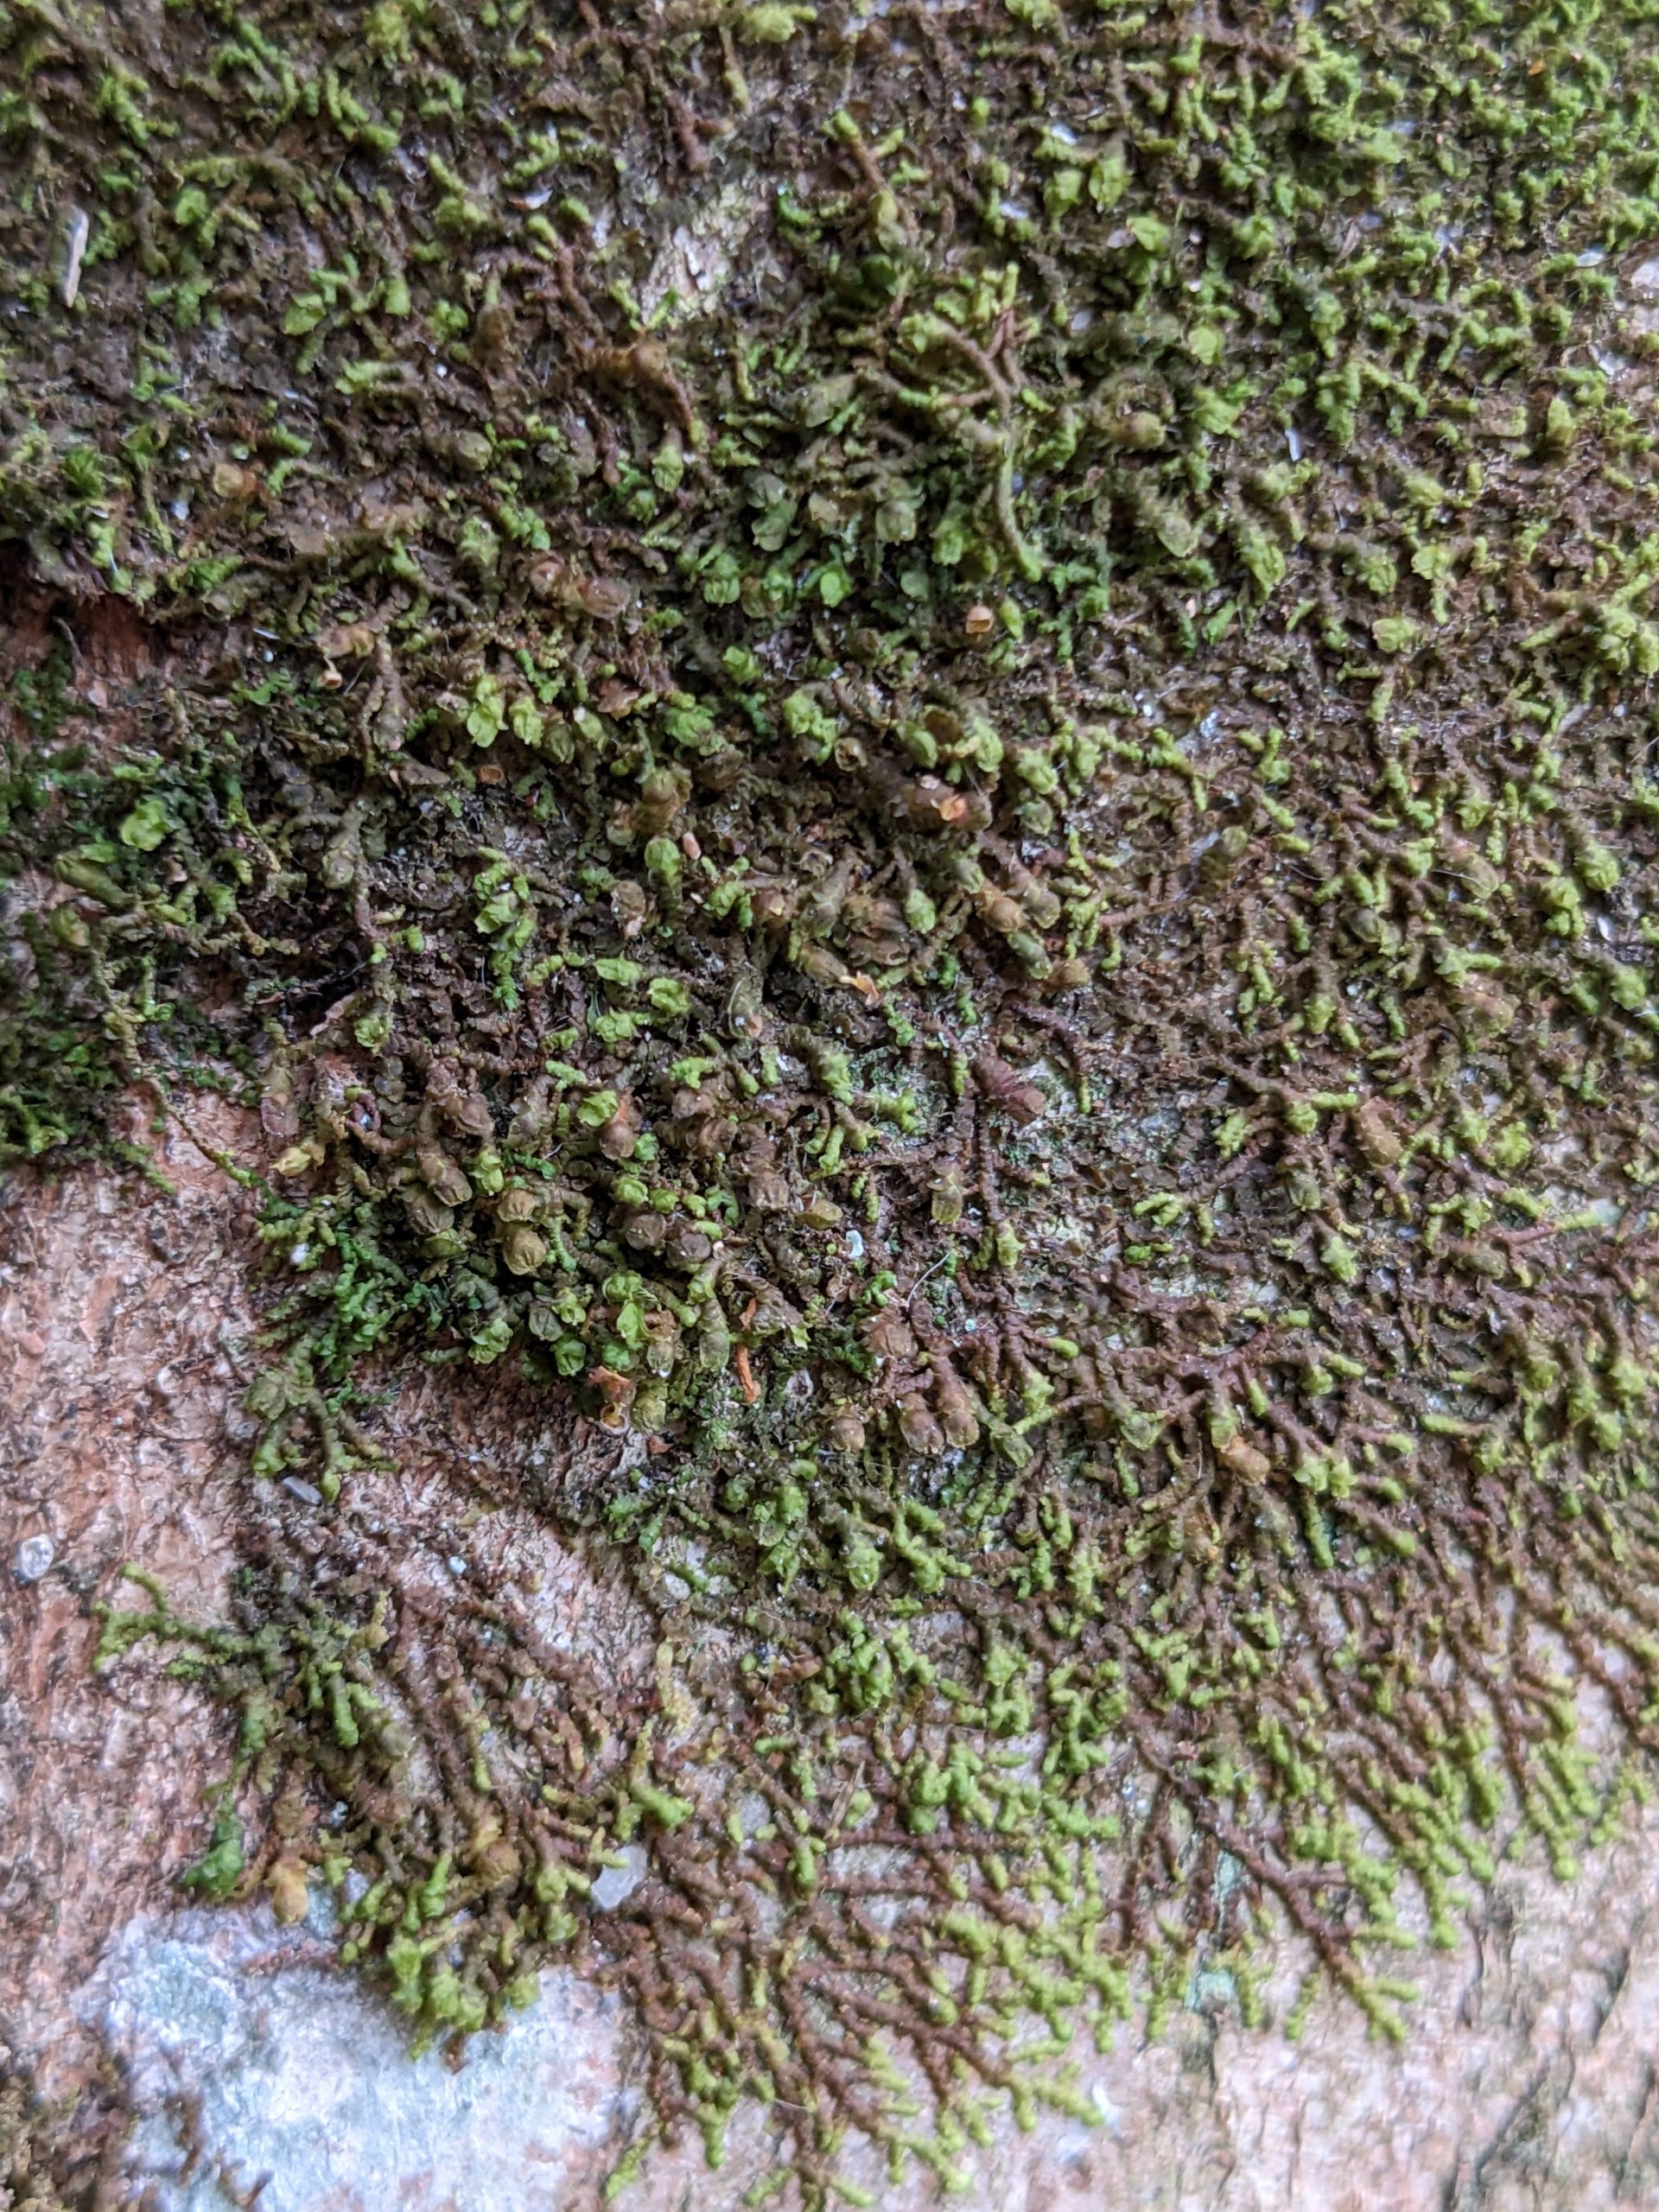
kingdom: Plantae
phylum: Marchantiophyta
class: Jungermanniopsida
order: Porellales
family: Frullaniaceae
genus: Frullania
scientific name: Frullania dilatata
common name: Mat bronzemos
